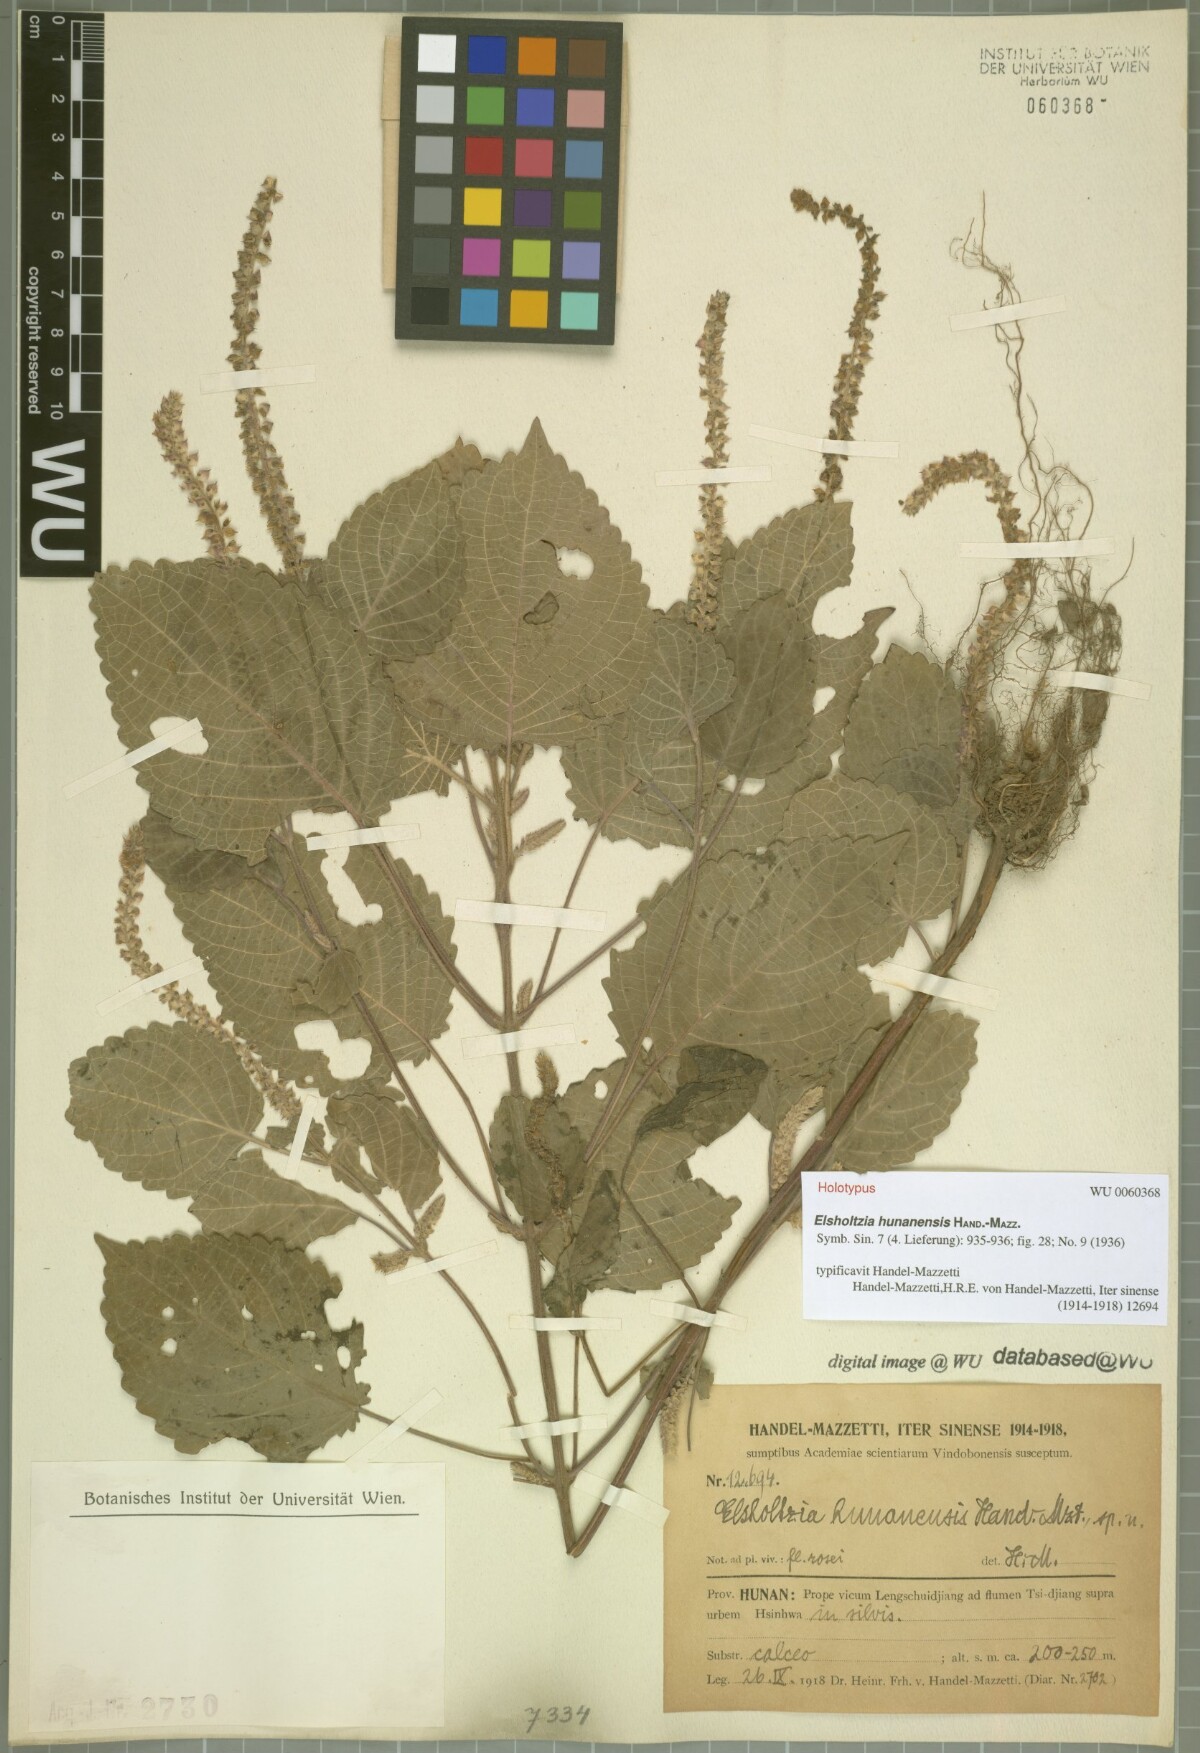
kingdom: Plantae
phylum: Tracheophyta
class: Magnoliopsida
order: Lamiales
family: Lamiaceae
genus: Elsholtzia
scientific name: Elsholtzia hunanensis
